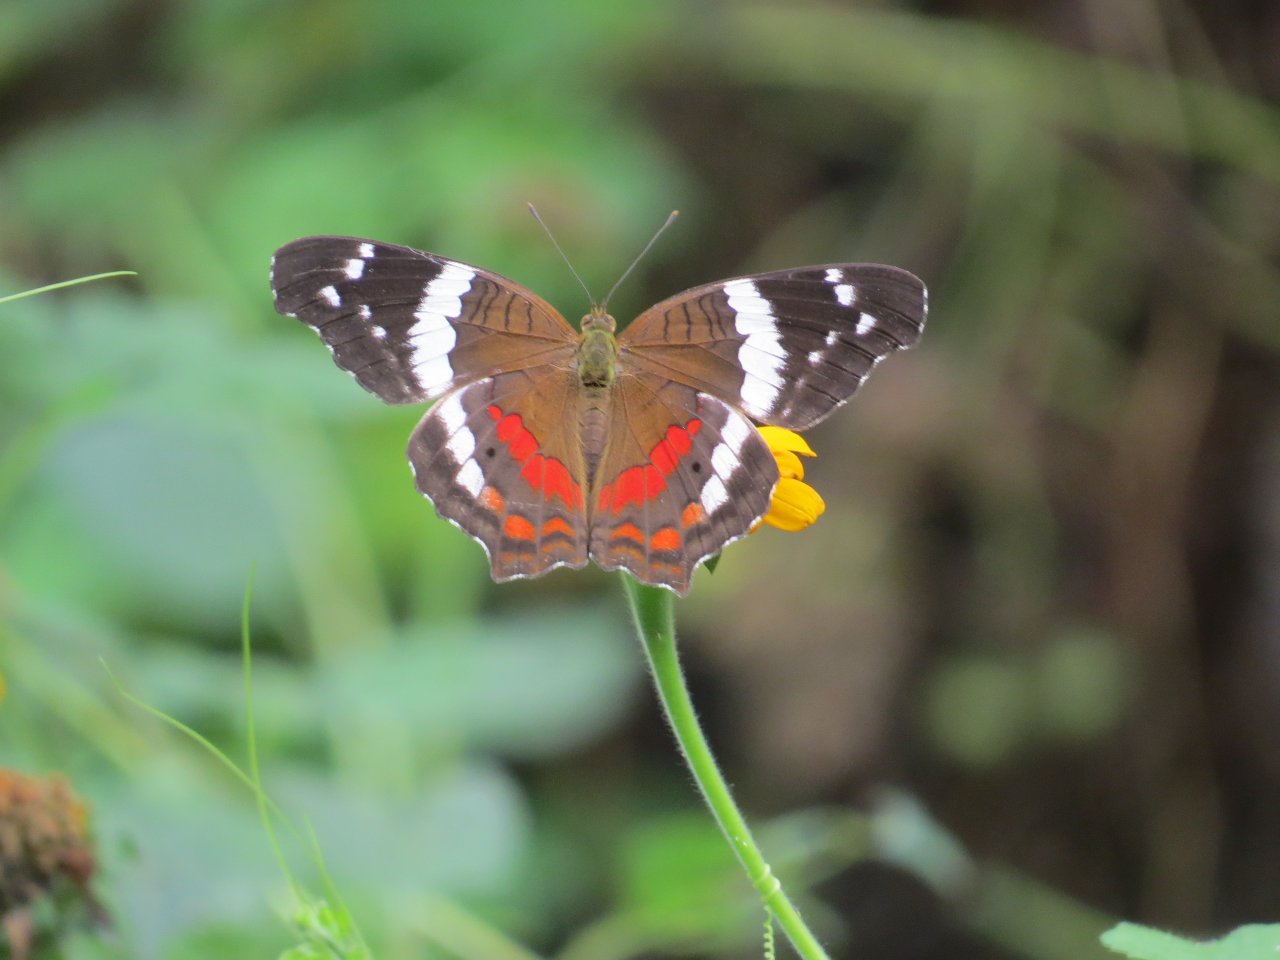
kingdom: Animalia
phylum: Arthropoda
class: Insecta
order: Lepidoptera
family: Nymphalidae
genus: Anartia
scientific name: Anartia fatima
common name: Banded Peacock
